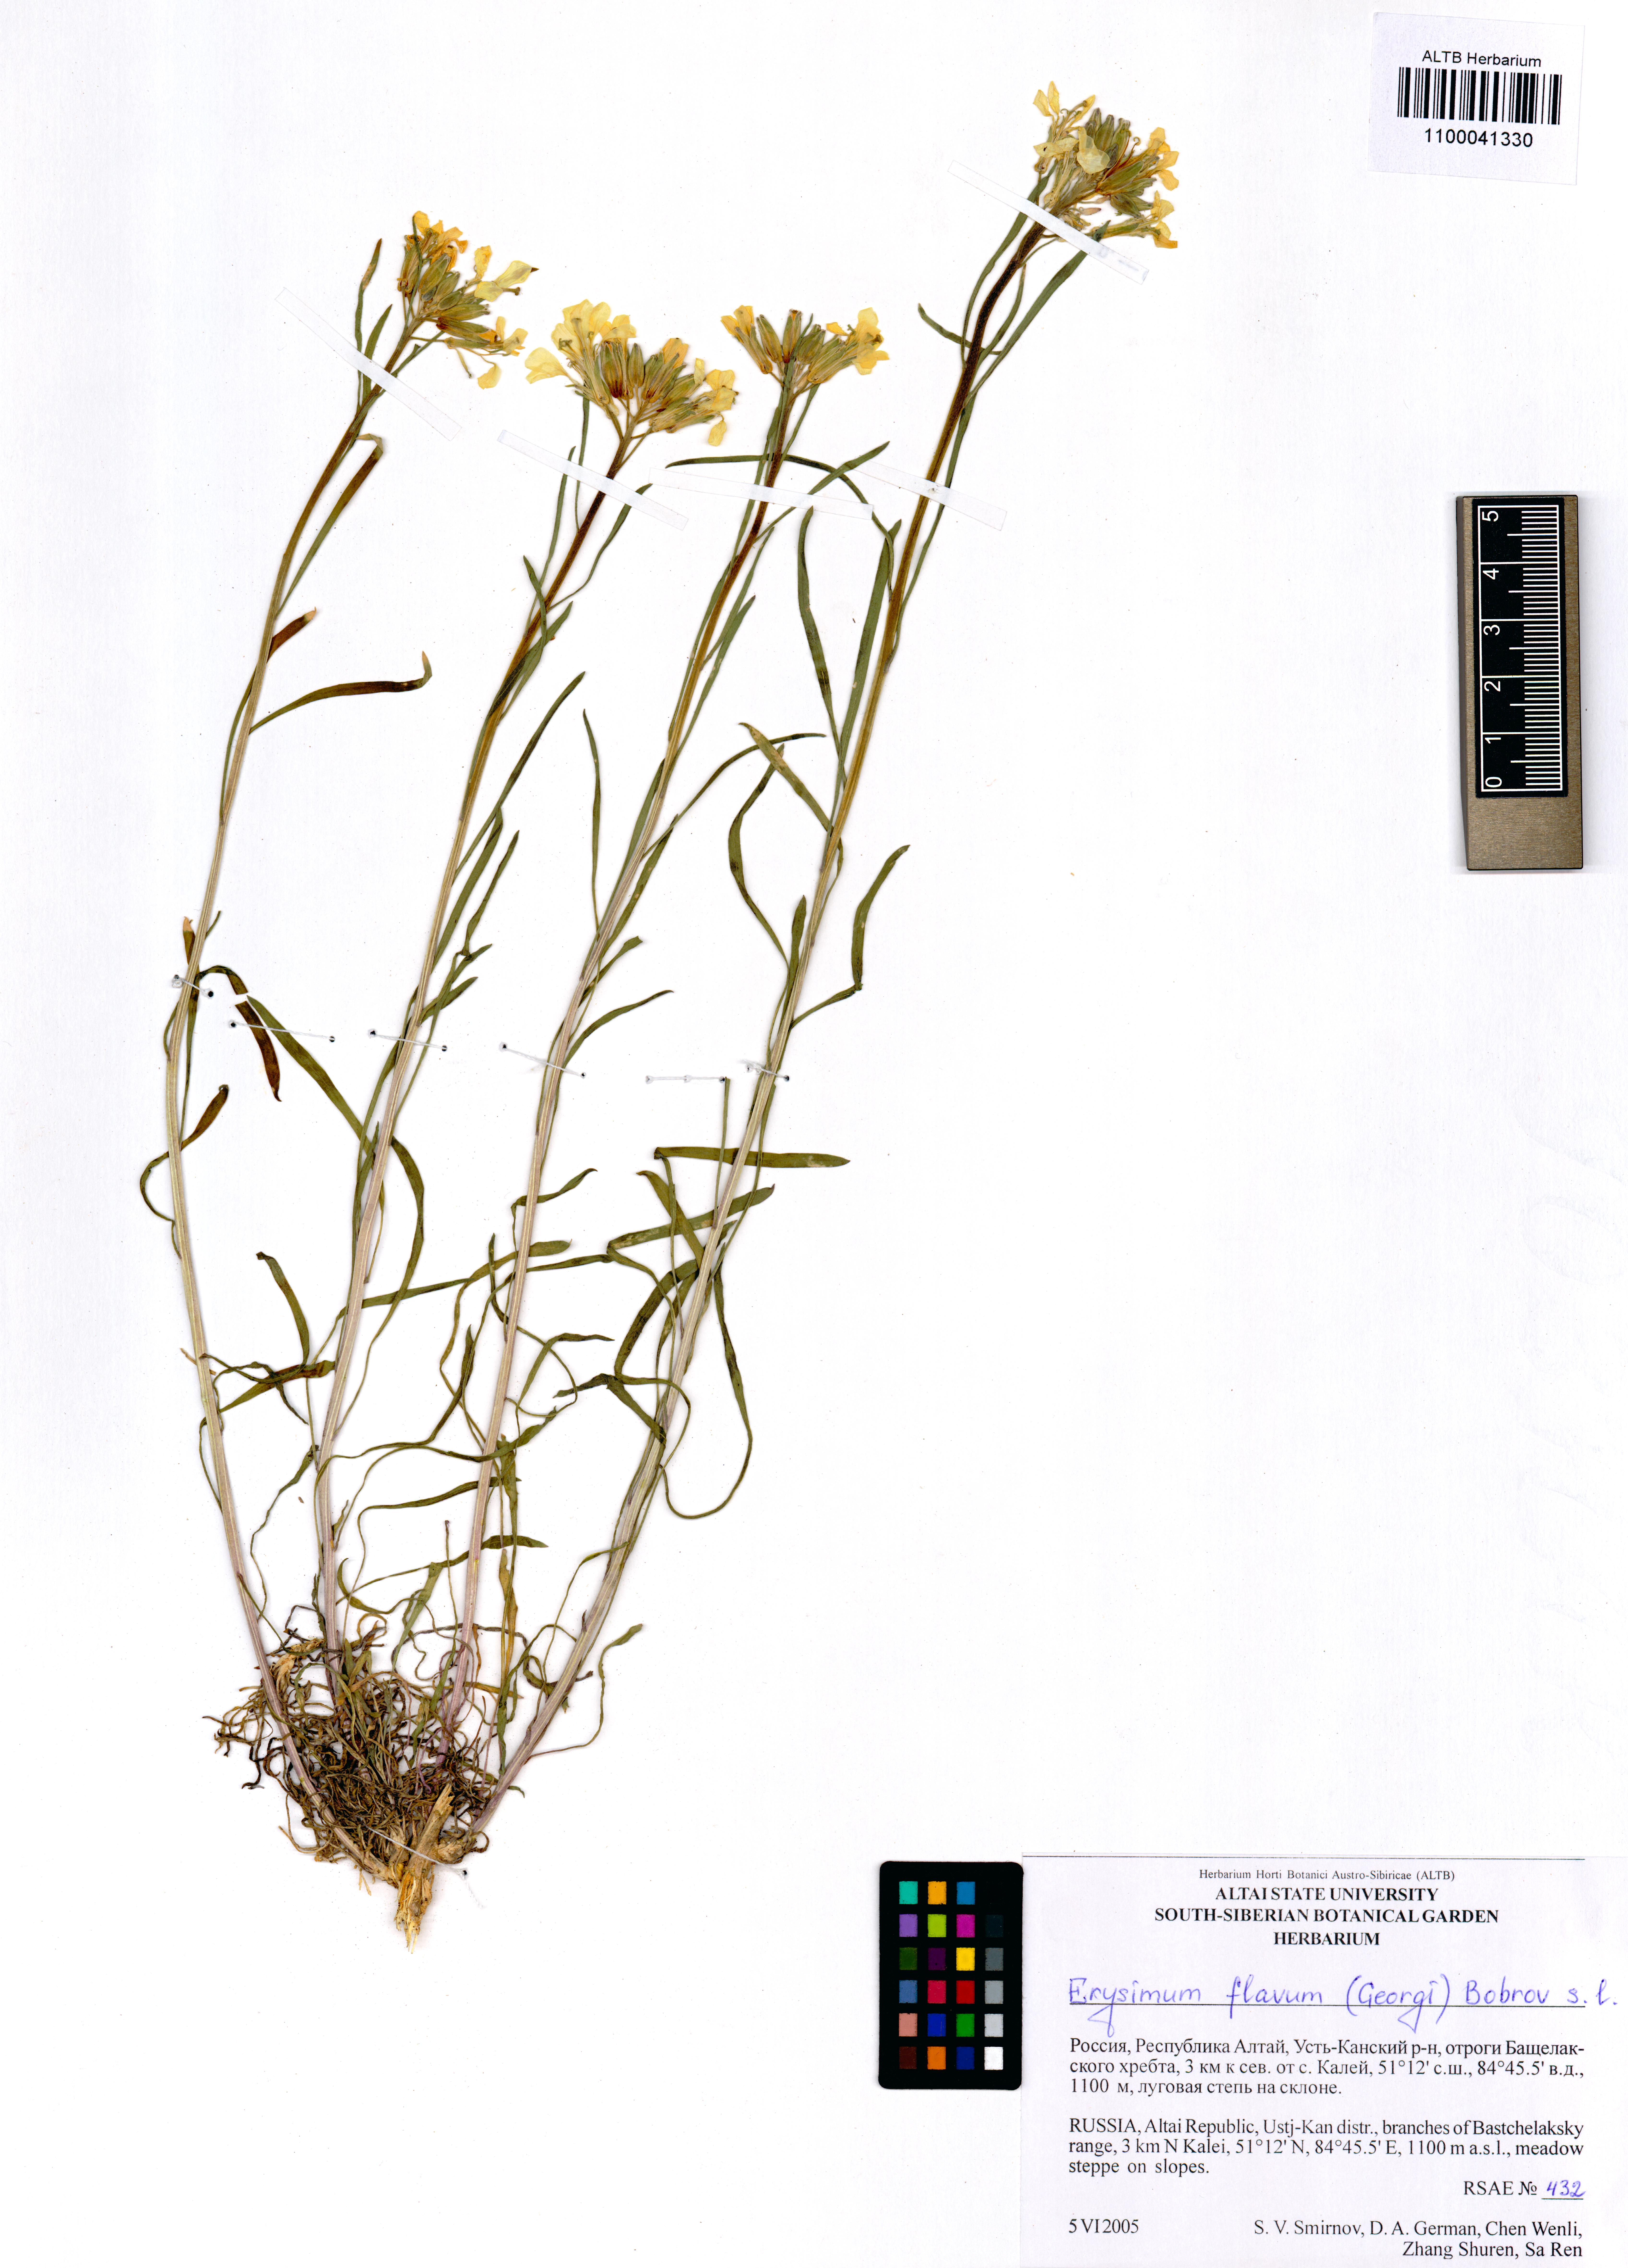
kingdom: Plantae
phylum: Tracheophyta
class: Magnoliopsida
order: Brassicales
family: Brassicaceae
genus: Erysimum
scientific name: Erysimum flavum
